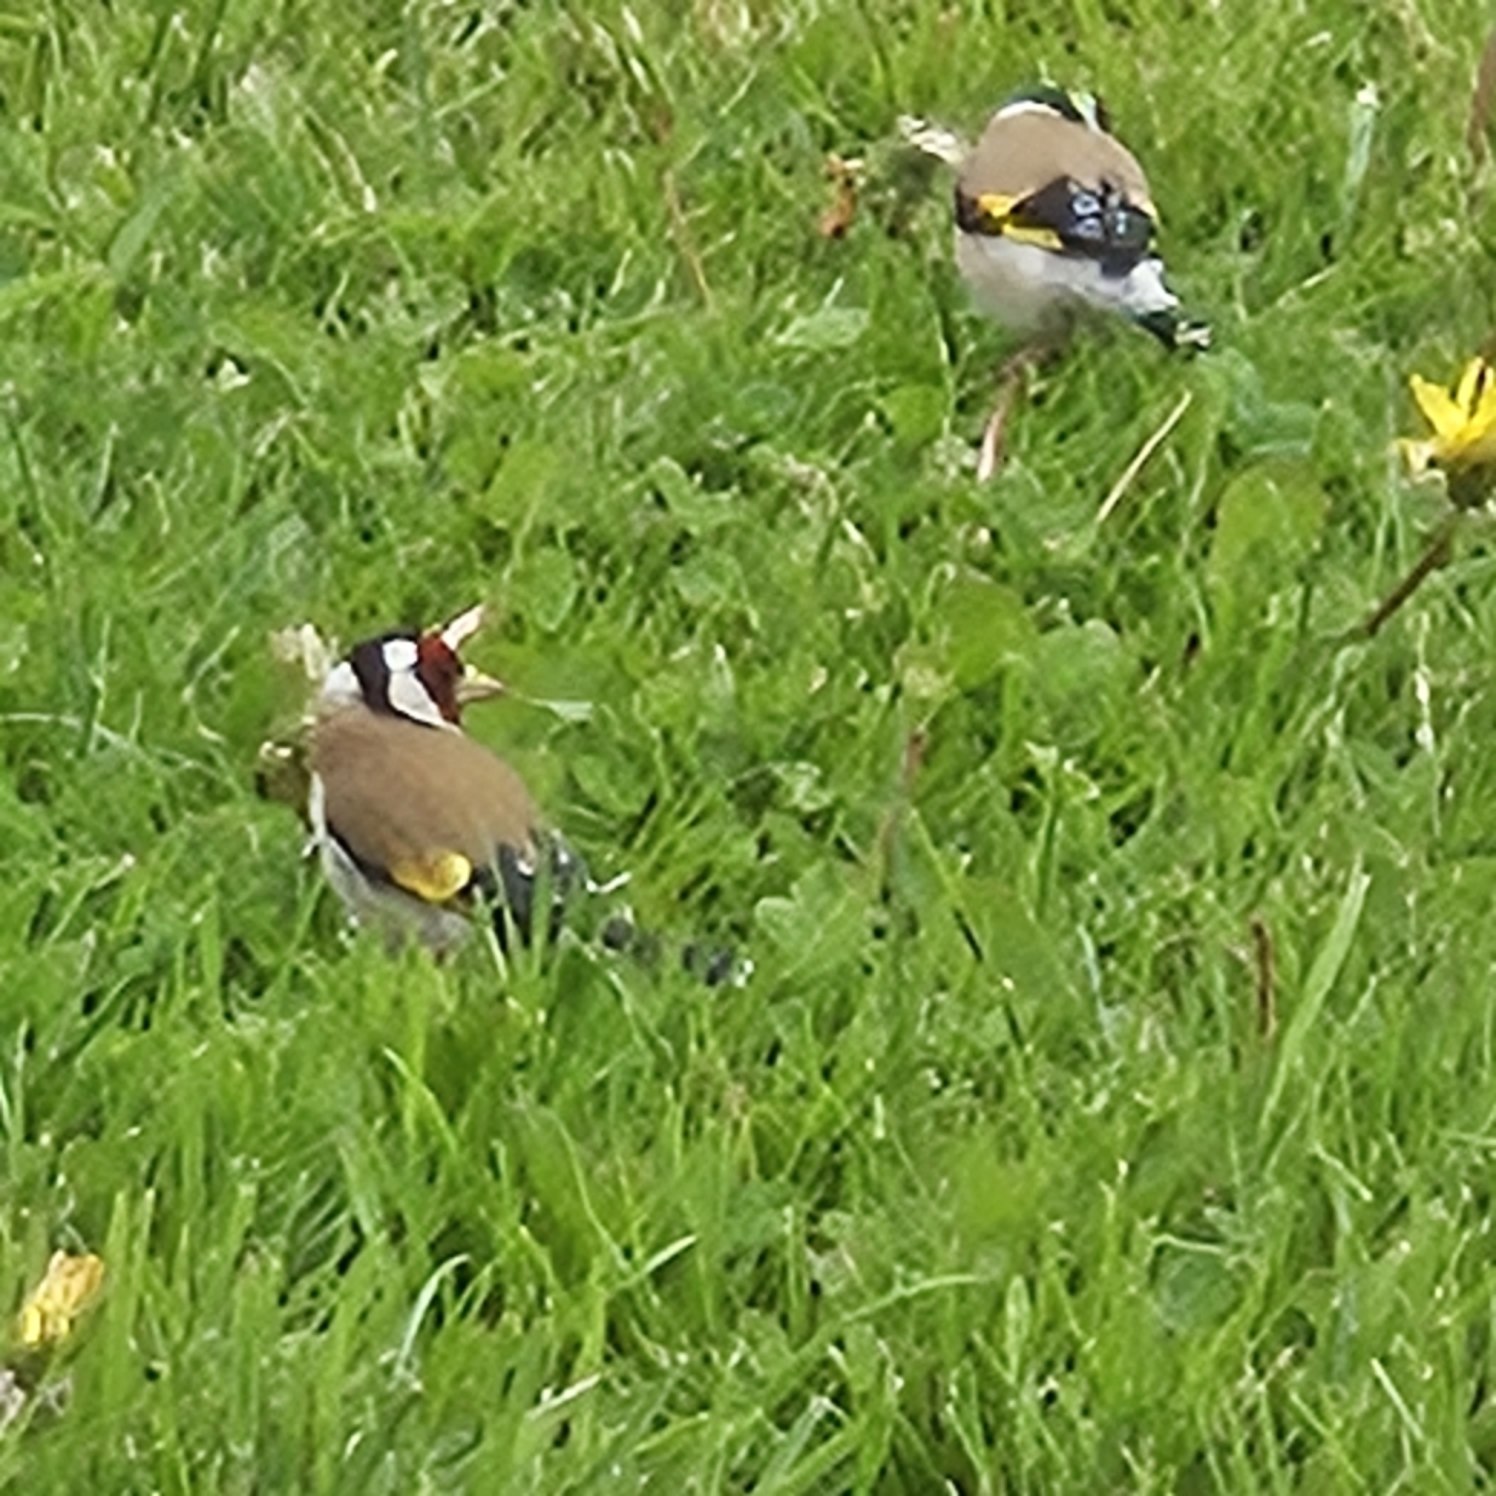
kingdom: Animalia
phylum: Chordata
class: Aves
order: Passeriformes
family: Fringillidae
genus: Carduelis
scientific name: Carduelis carduelis
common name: Stillits
